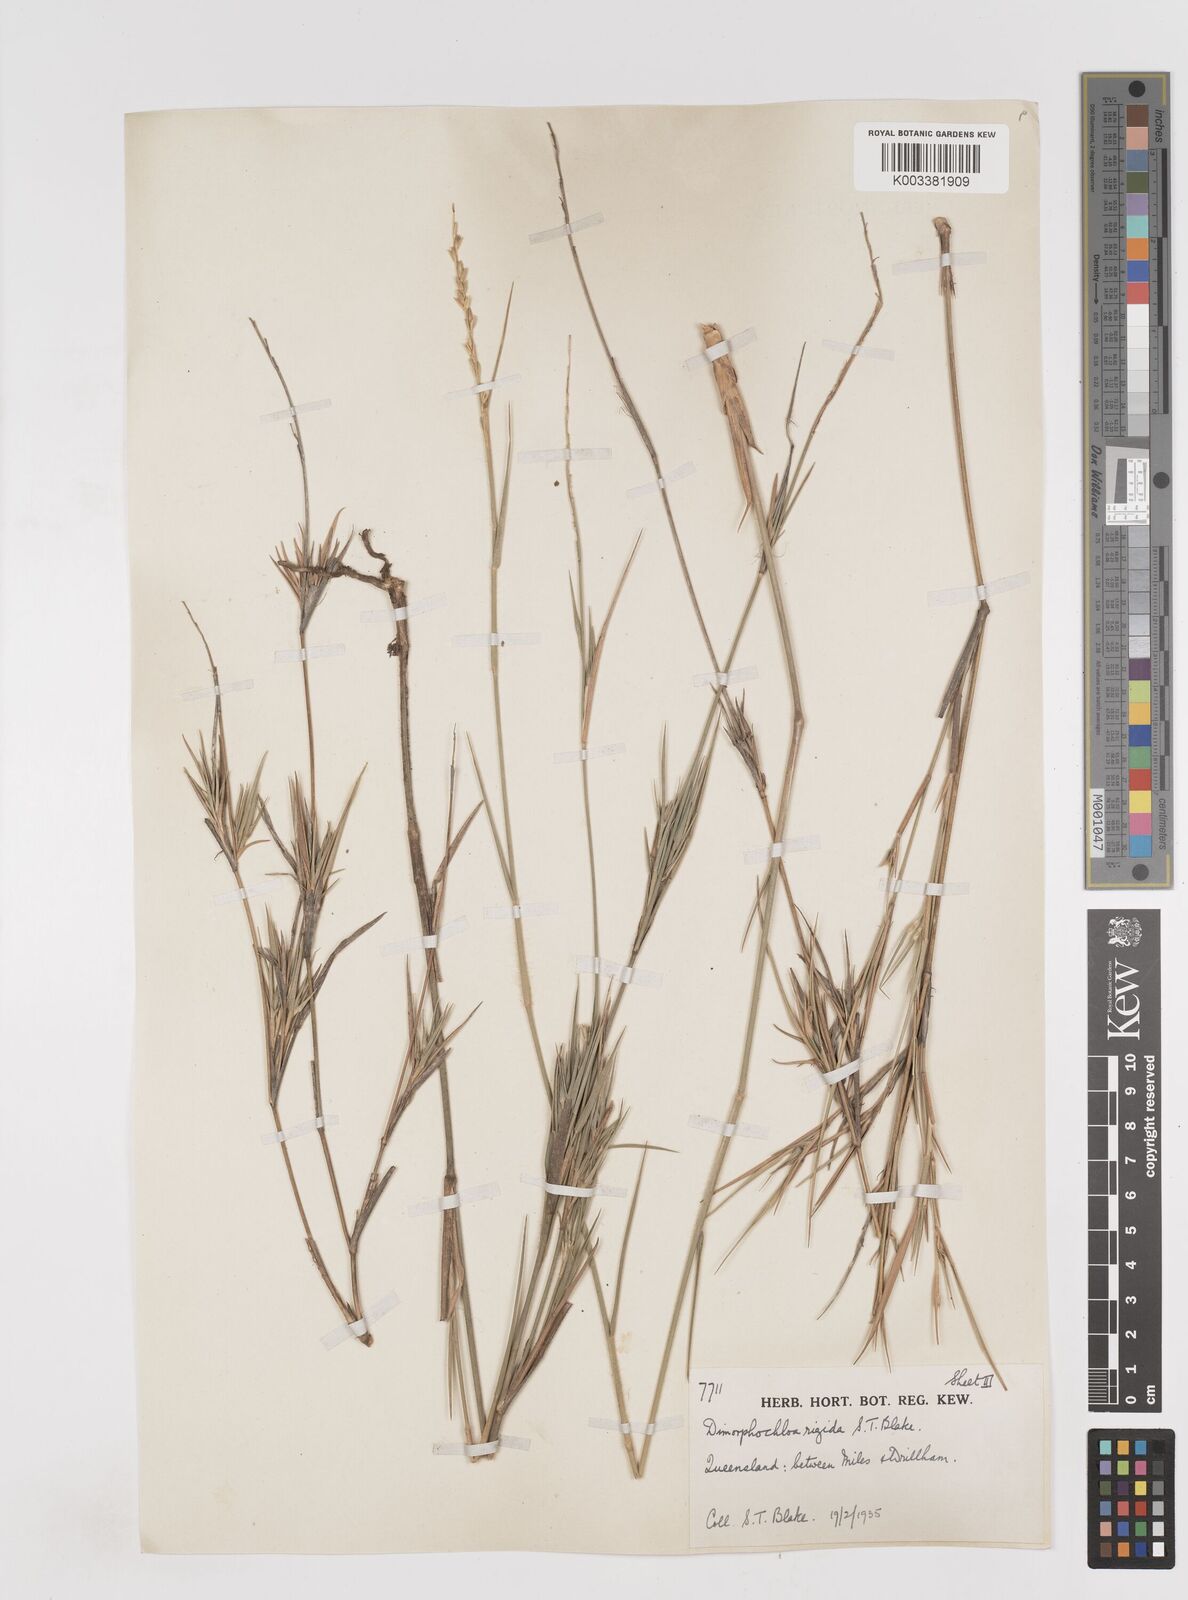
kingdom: Plantae
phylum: Tracheophyta
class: Liliopsida
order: Poales
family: Poaceae
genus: Dimorphochloa
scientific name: Dimorphochloa rigida
